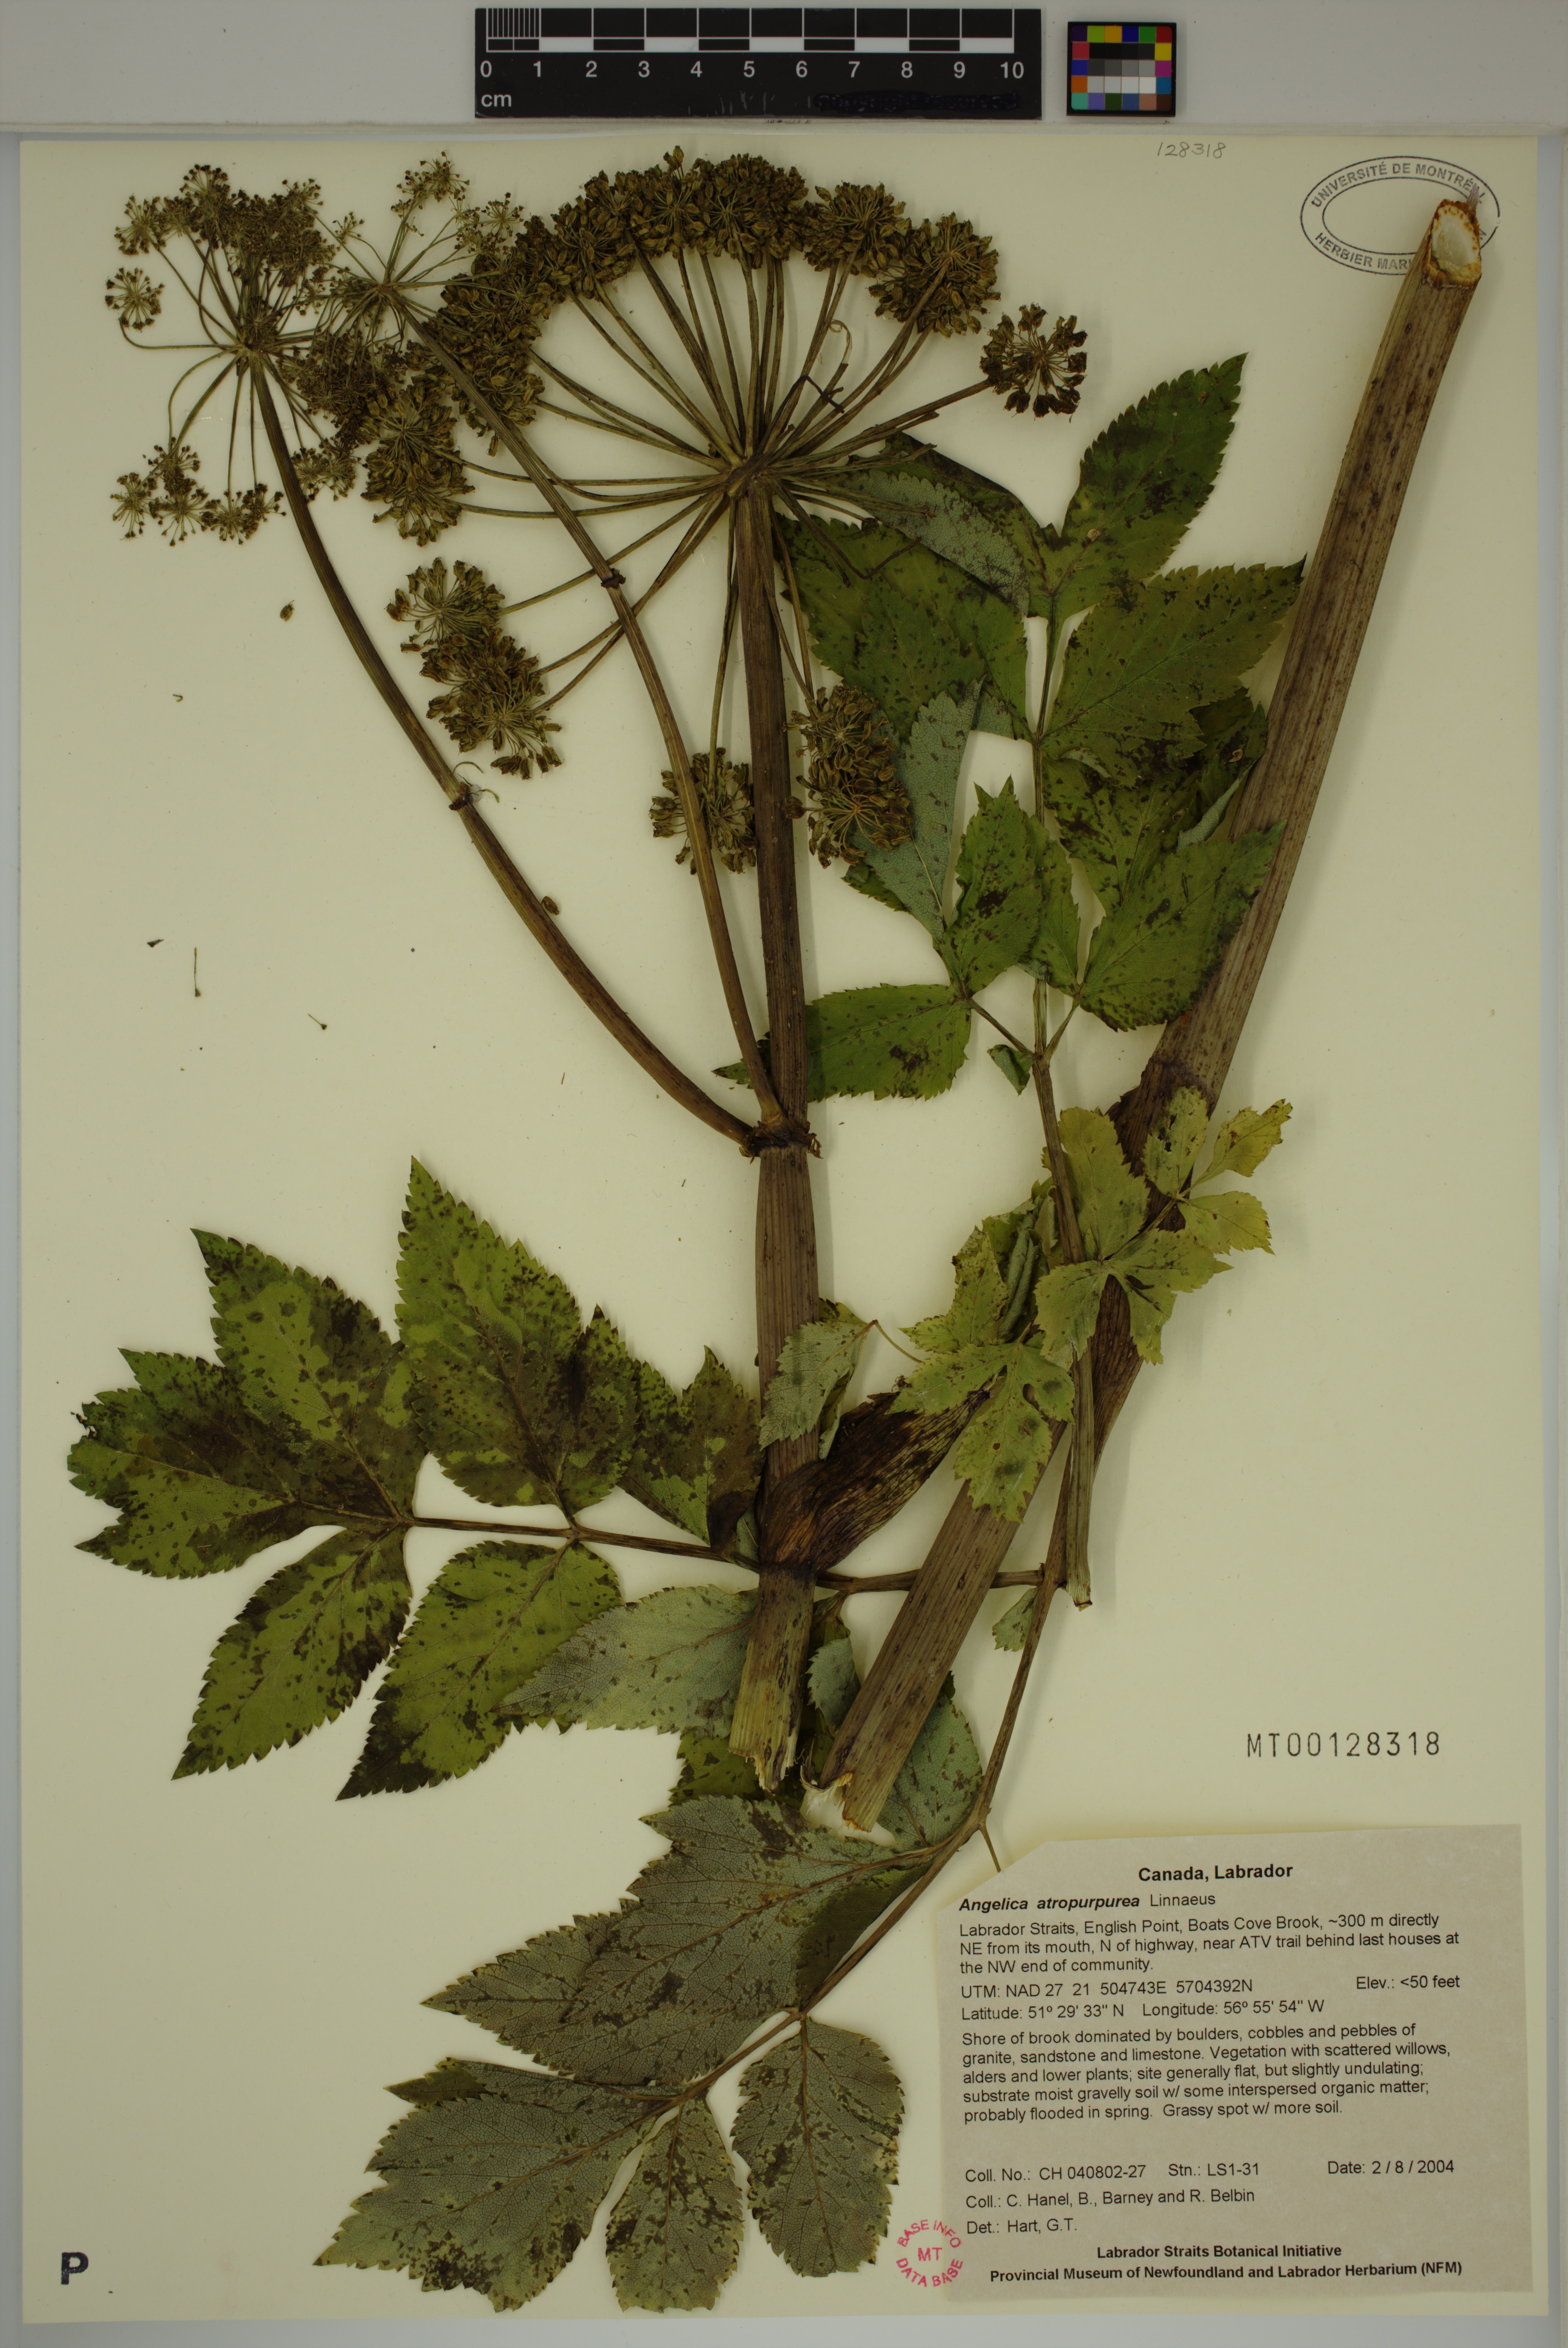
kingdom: Plantae
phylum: Tracheophyta
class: Magnoliopsida
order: Apiales
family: Apiaceae
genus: Angelica
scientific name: Angelica atropurpurea
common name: Great angelica
